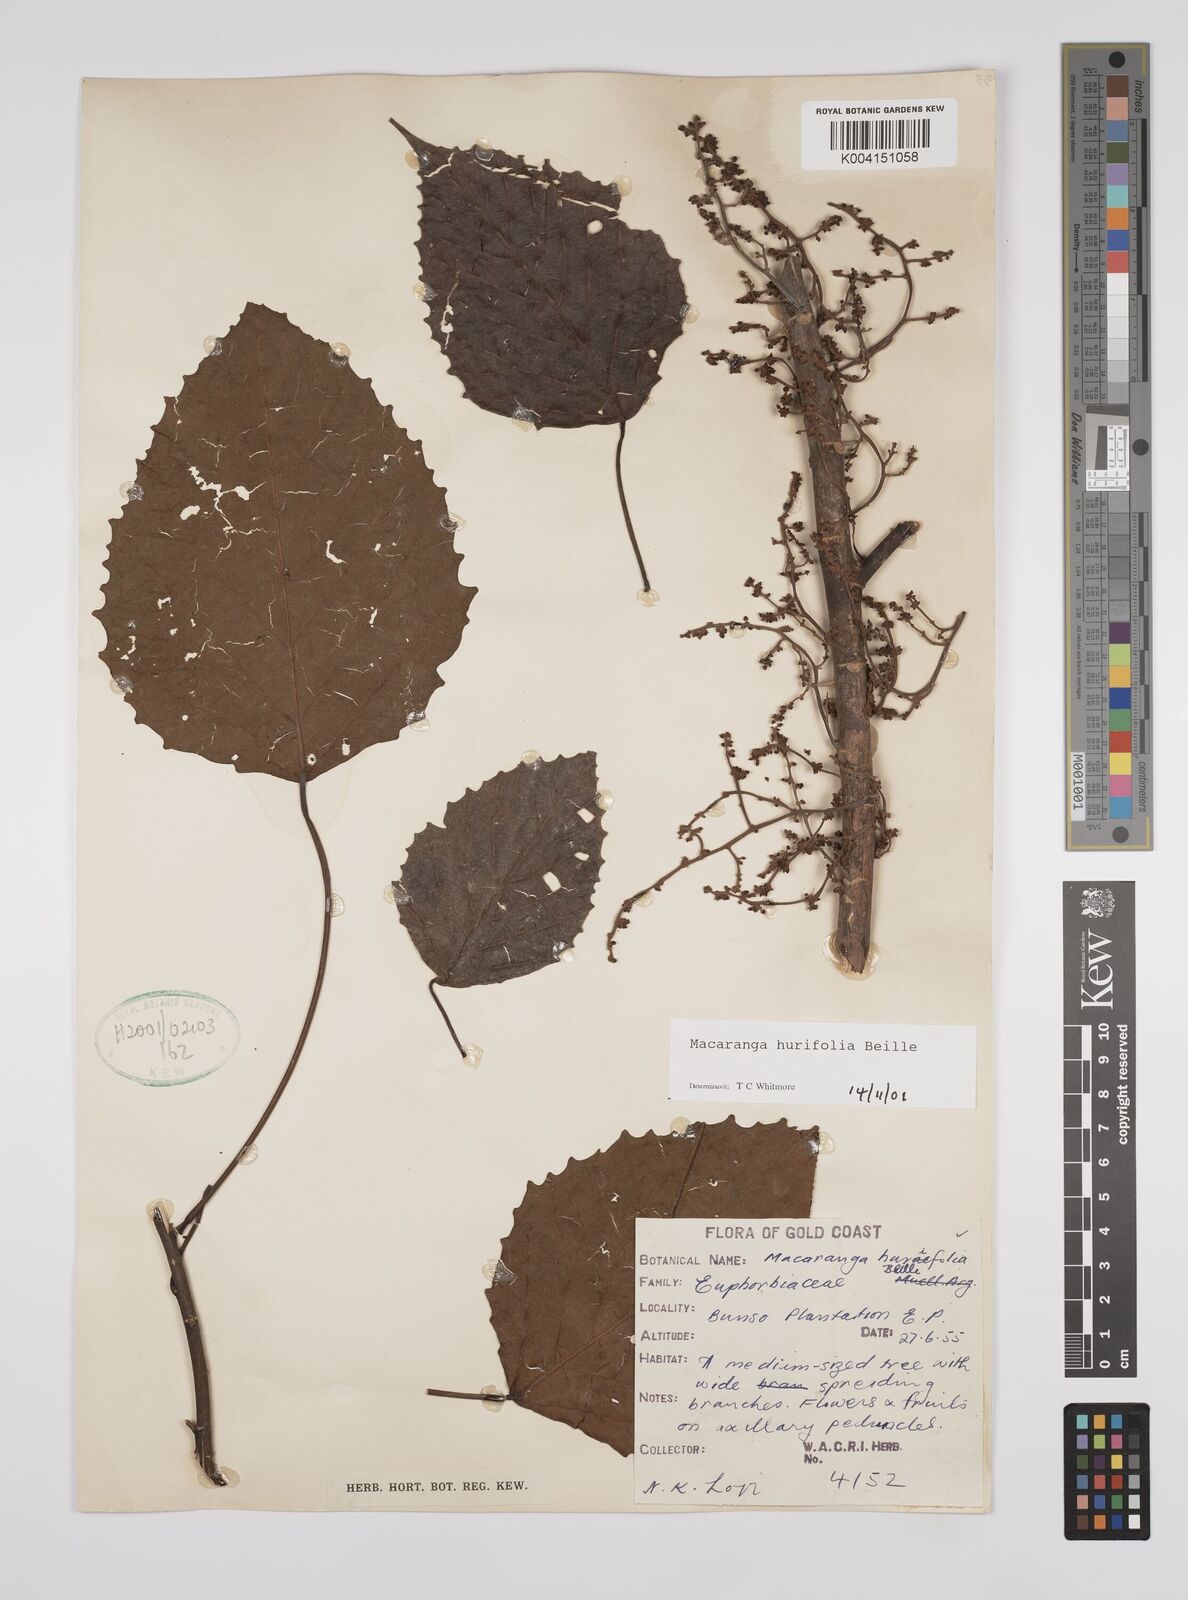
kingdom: Plantae
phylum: Tracheophyta
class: Magnoliopsida
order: Malpighiales
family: Euphorbiaceae
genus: Macaranga
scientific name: Macaranga hurifolia
